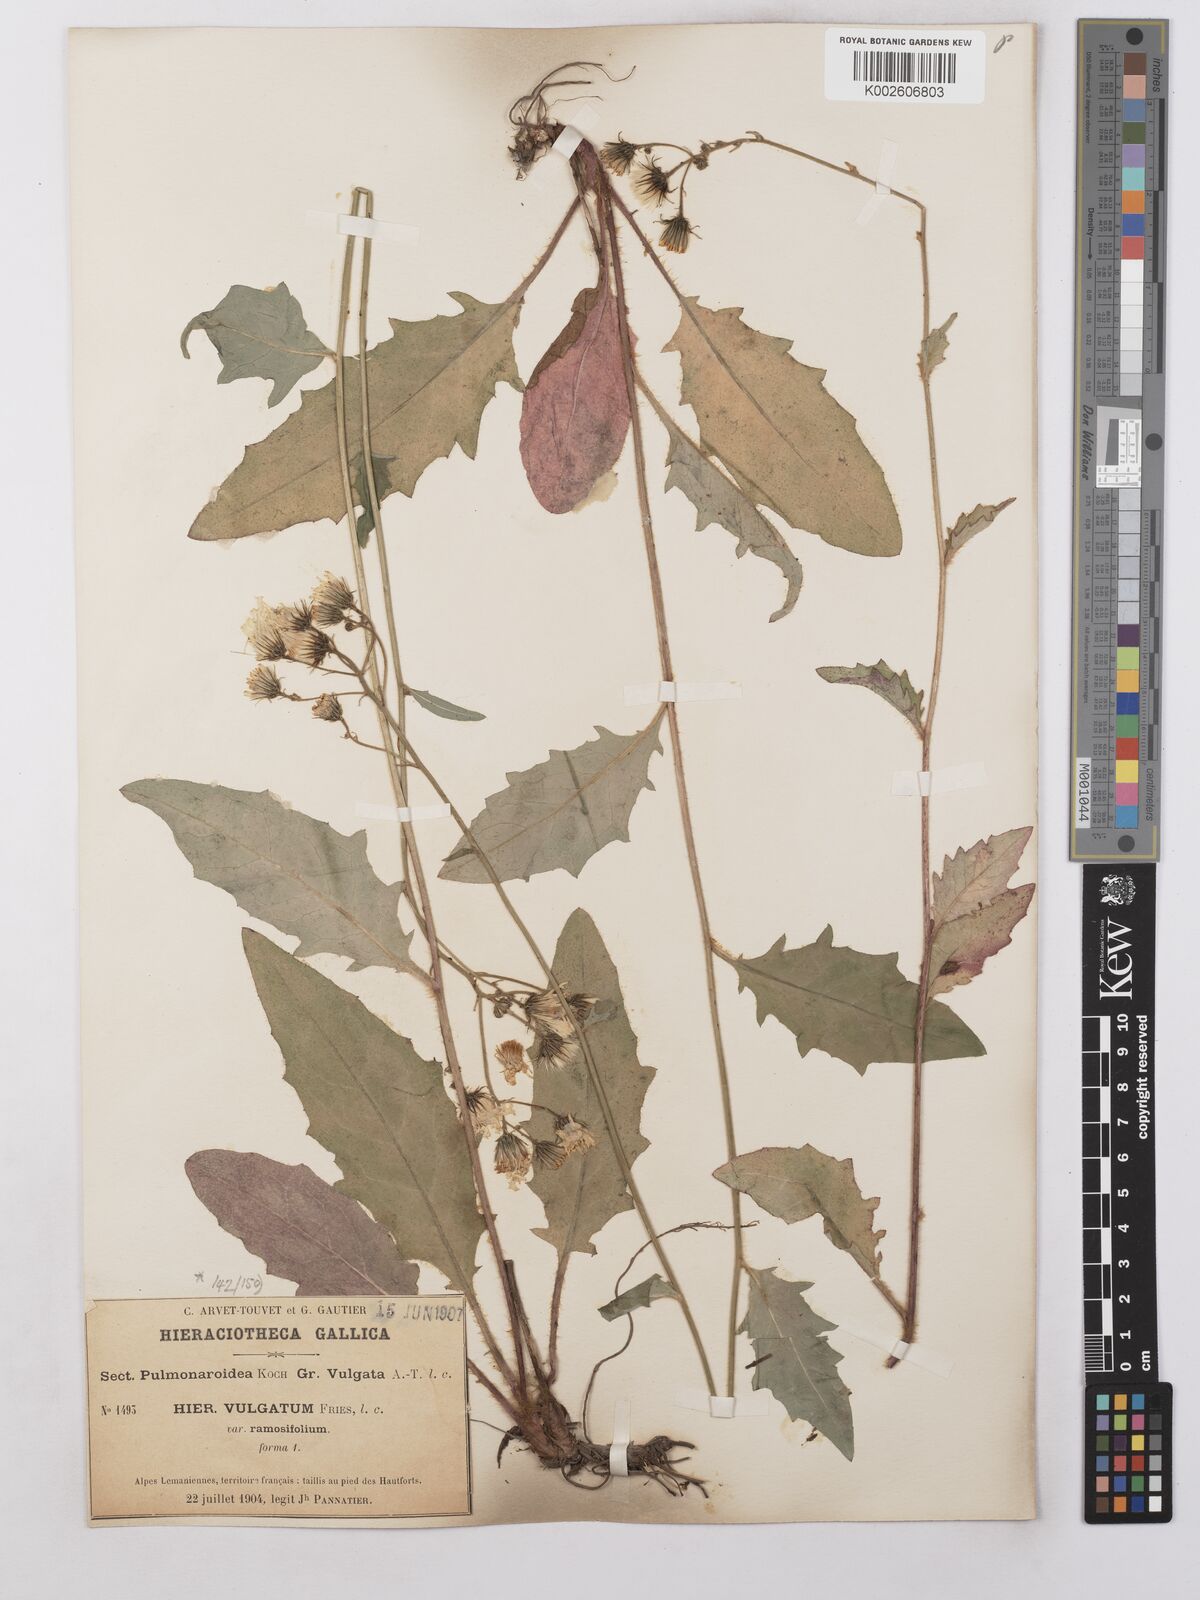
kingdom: Plantae
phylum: Tracheophyta
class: Magnoliopsida
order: Asterales
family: Asteraceae
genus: Hieracium
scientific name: Hieracium lachenalii
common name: Common hawkweed
